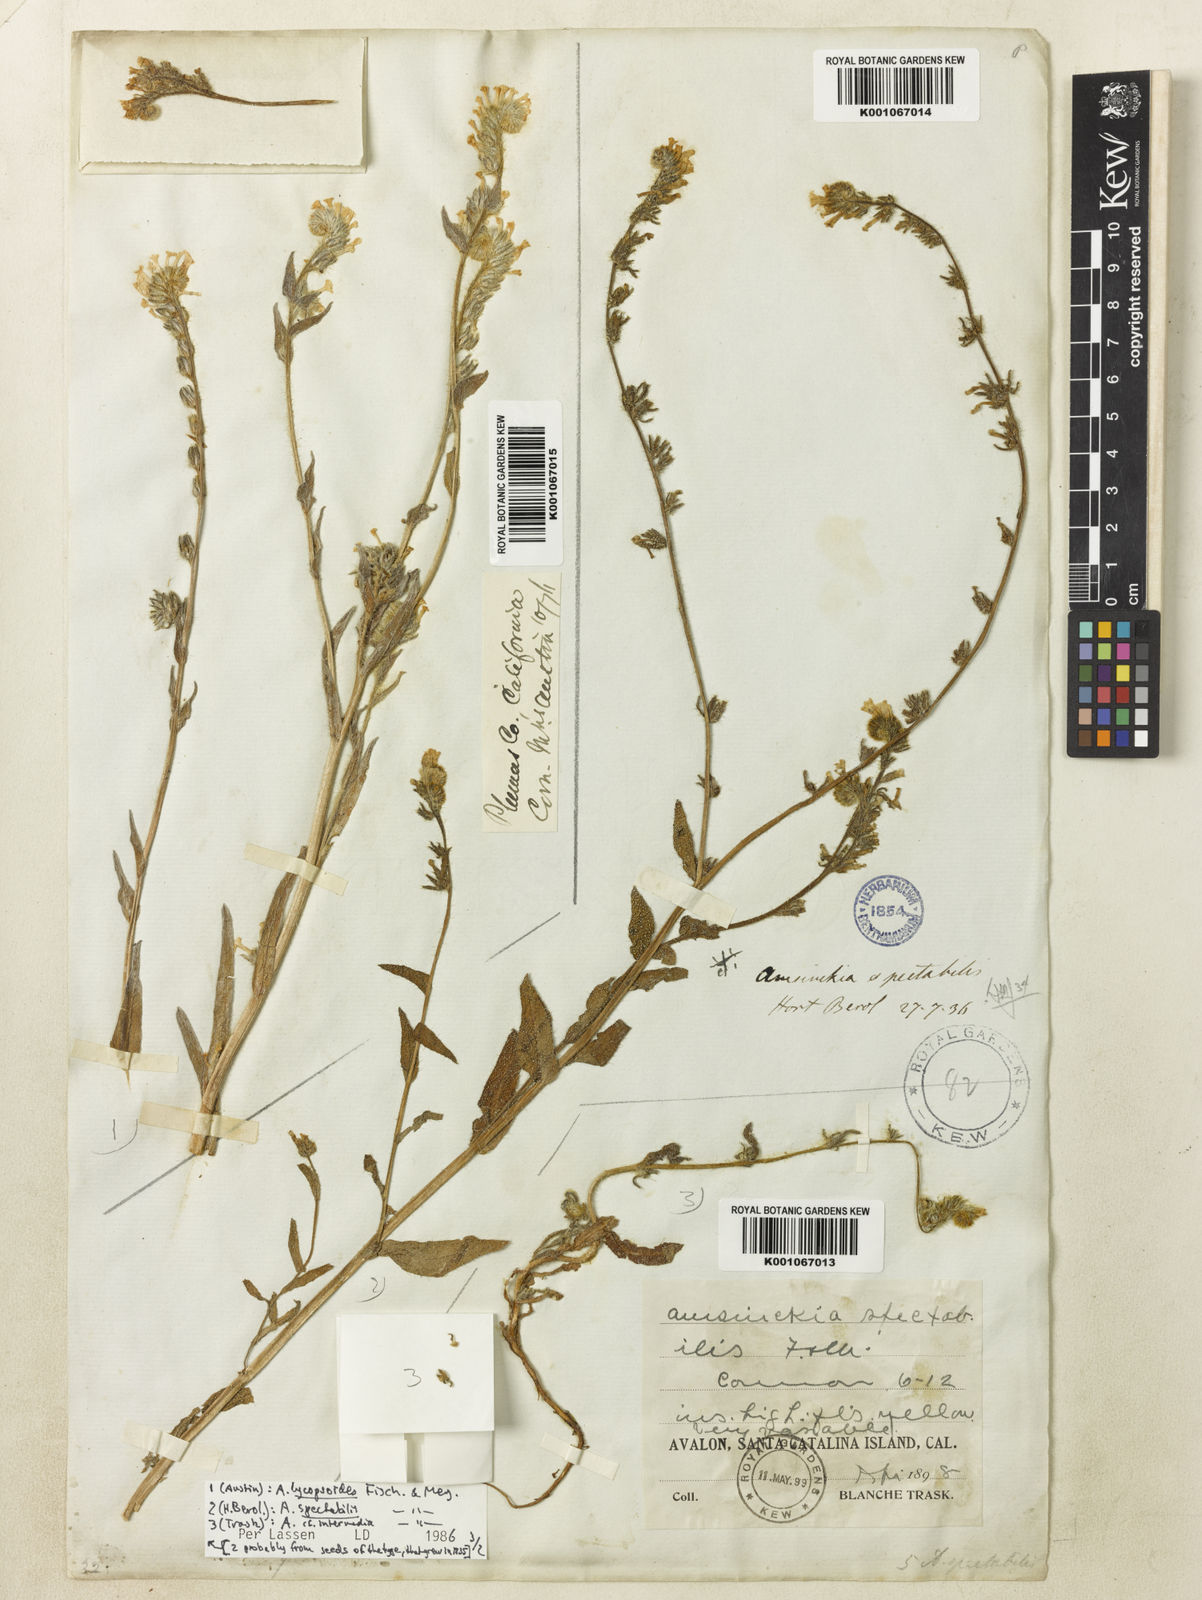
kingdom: Plantae
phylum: Tracheophyta
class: Magnoliopsida
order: Boraginales
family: Boraginaceae
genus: Amsinckia
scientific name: Amsinckia spectabilis
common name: Seaside fiddleneck
